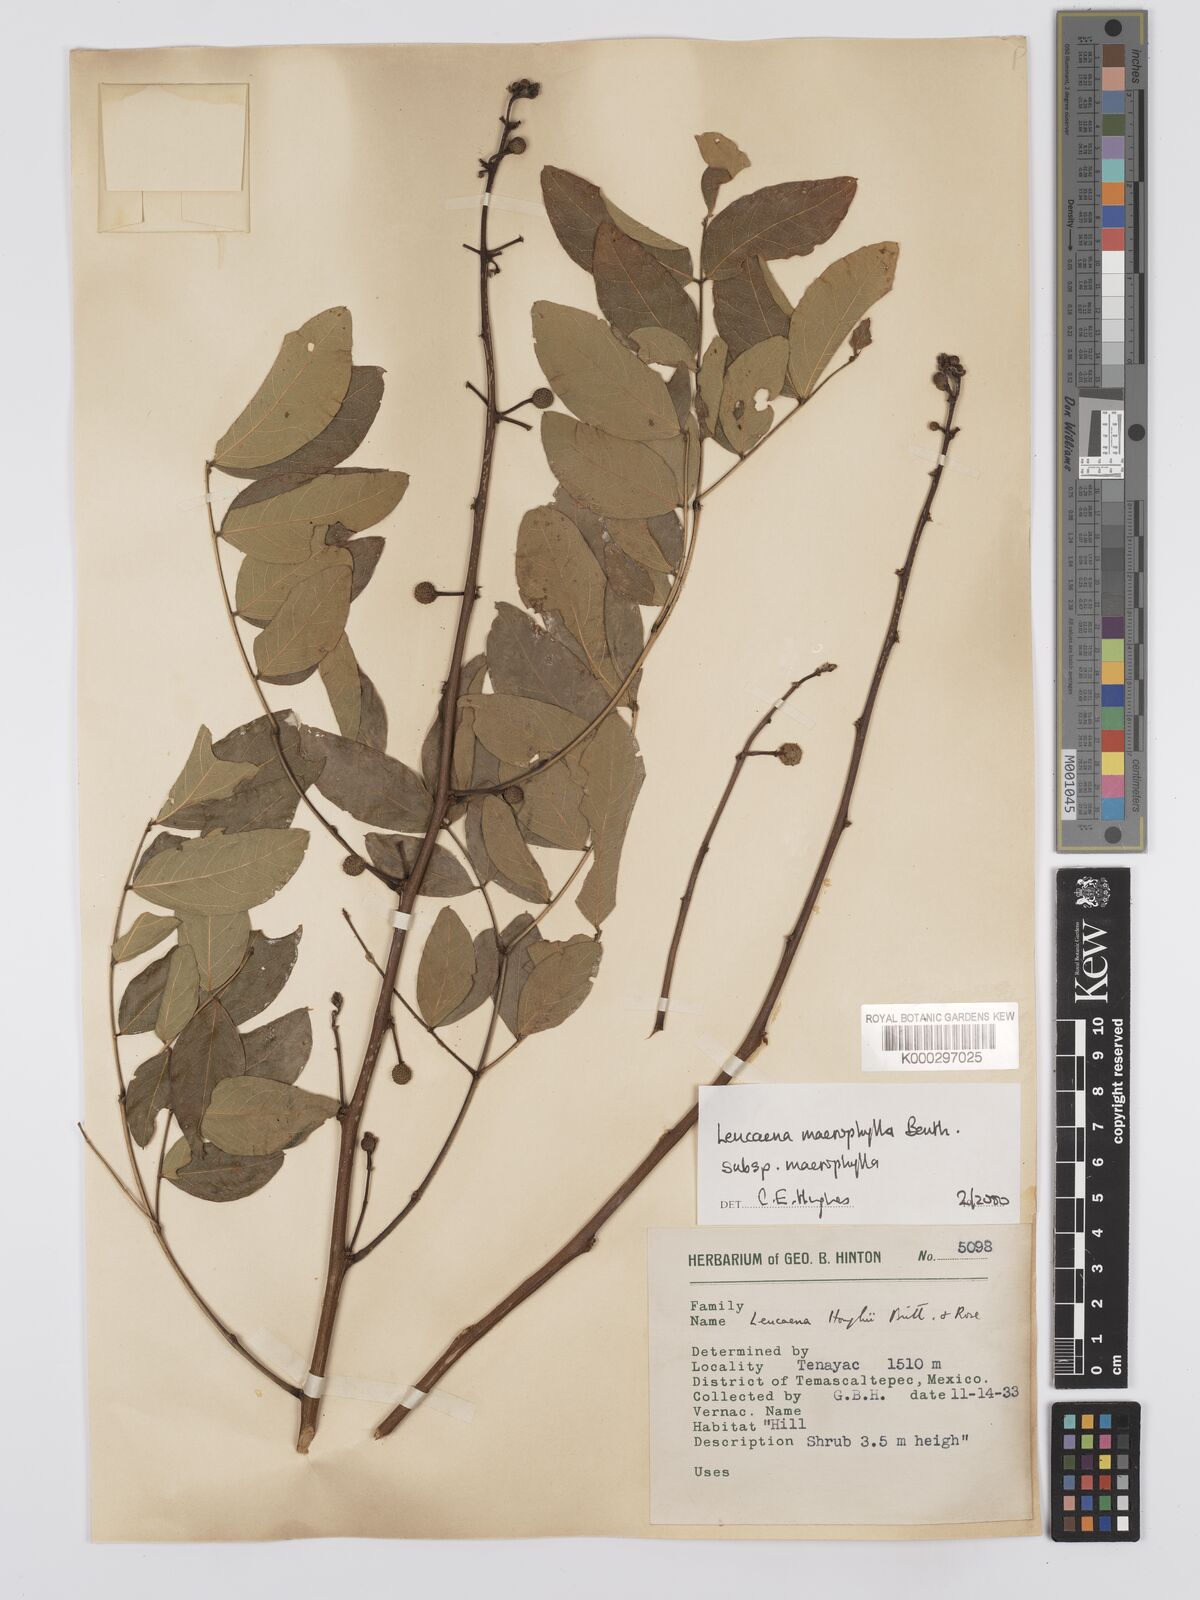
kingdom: Plantae
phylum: Tracheophyta
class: Magnoliopsida
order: Fabales
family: Fabaceae
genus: Leucaena
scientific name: Leucaena macrophylla
